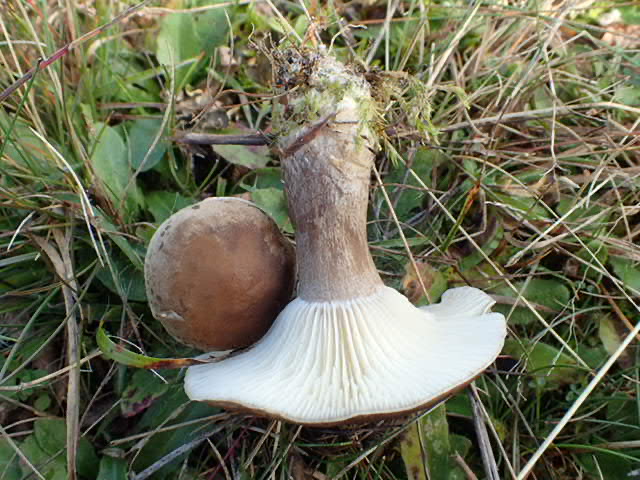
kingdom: Fungi
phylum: Basidiomycota
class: Agaricomycetes
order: Agaricales
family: Hygrophoraceae
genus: Ampulloclitocybe
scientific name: Ampulloclitocybe clavipes
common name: køllefod
